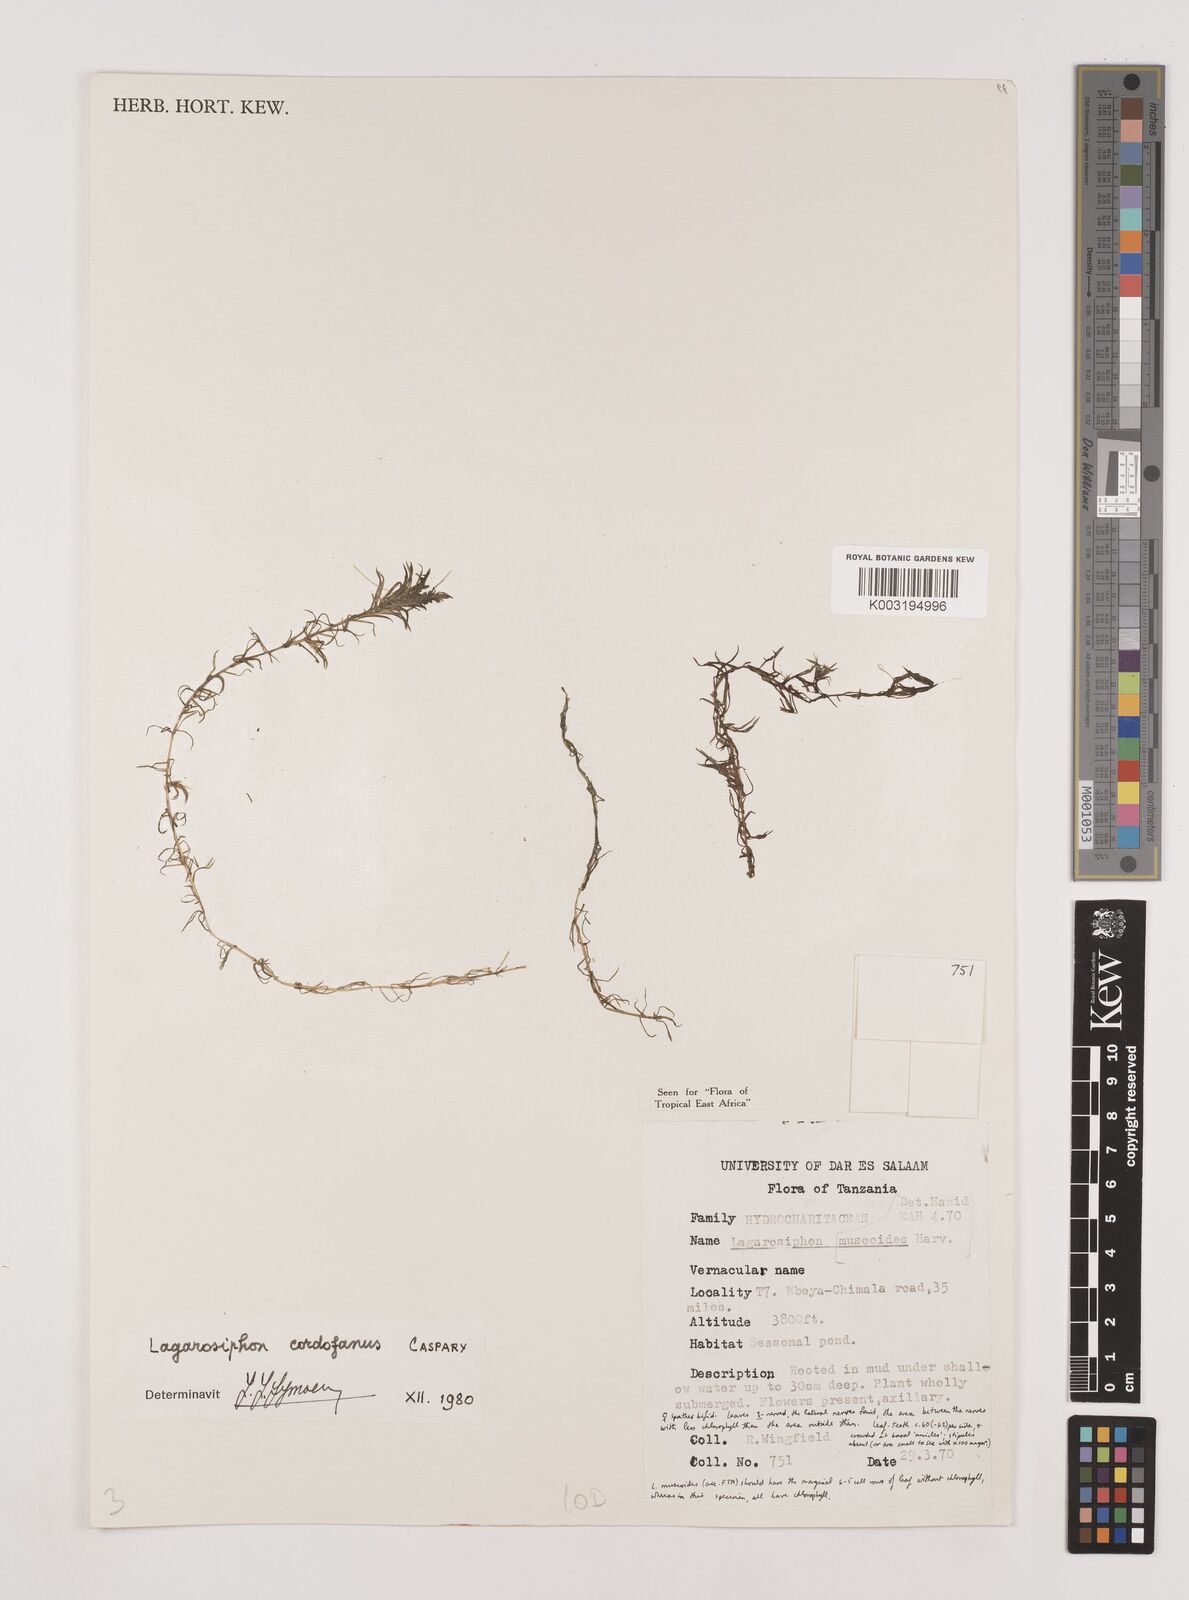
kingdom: Plantae
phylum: Tracheophyta
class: Liliopsida
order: Alismatales
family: Hydrocharitaceae
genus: Lagarosiphon
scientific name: Lagarosiphon cordofanus
